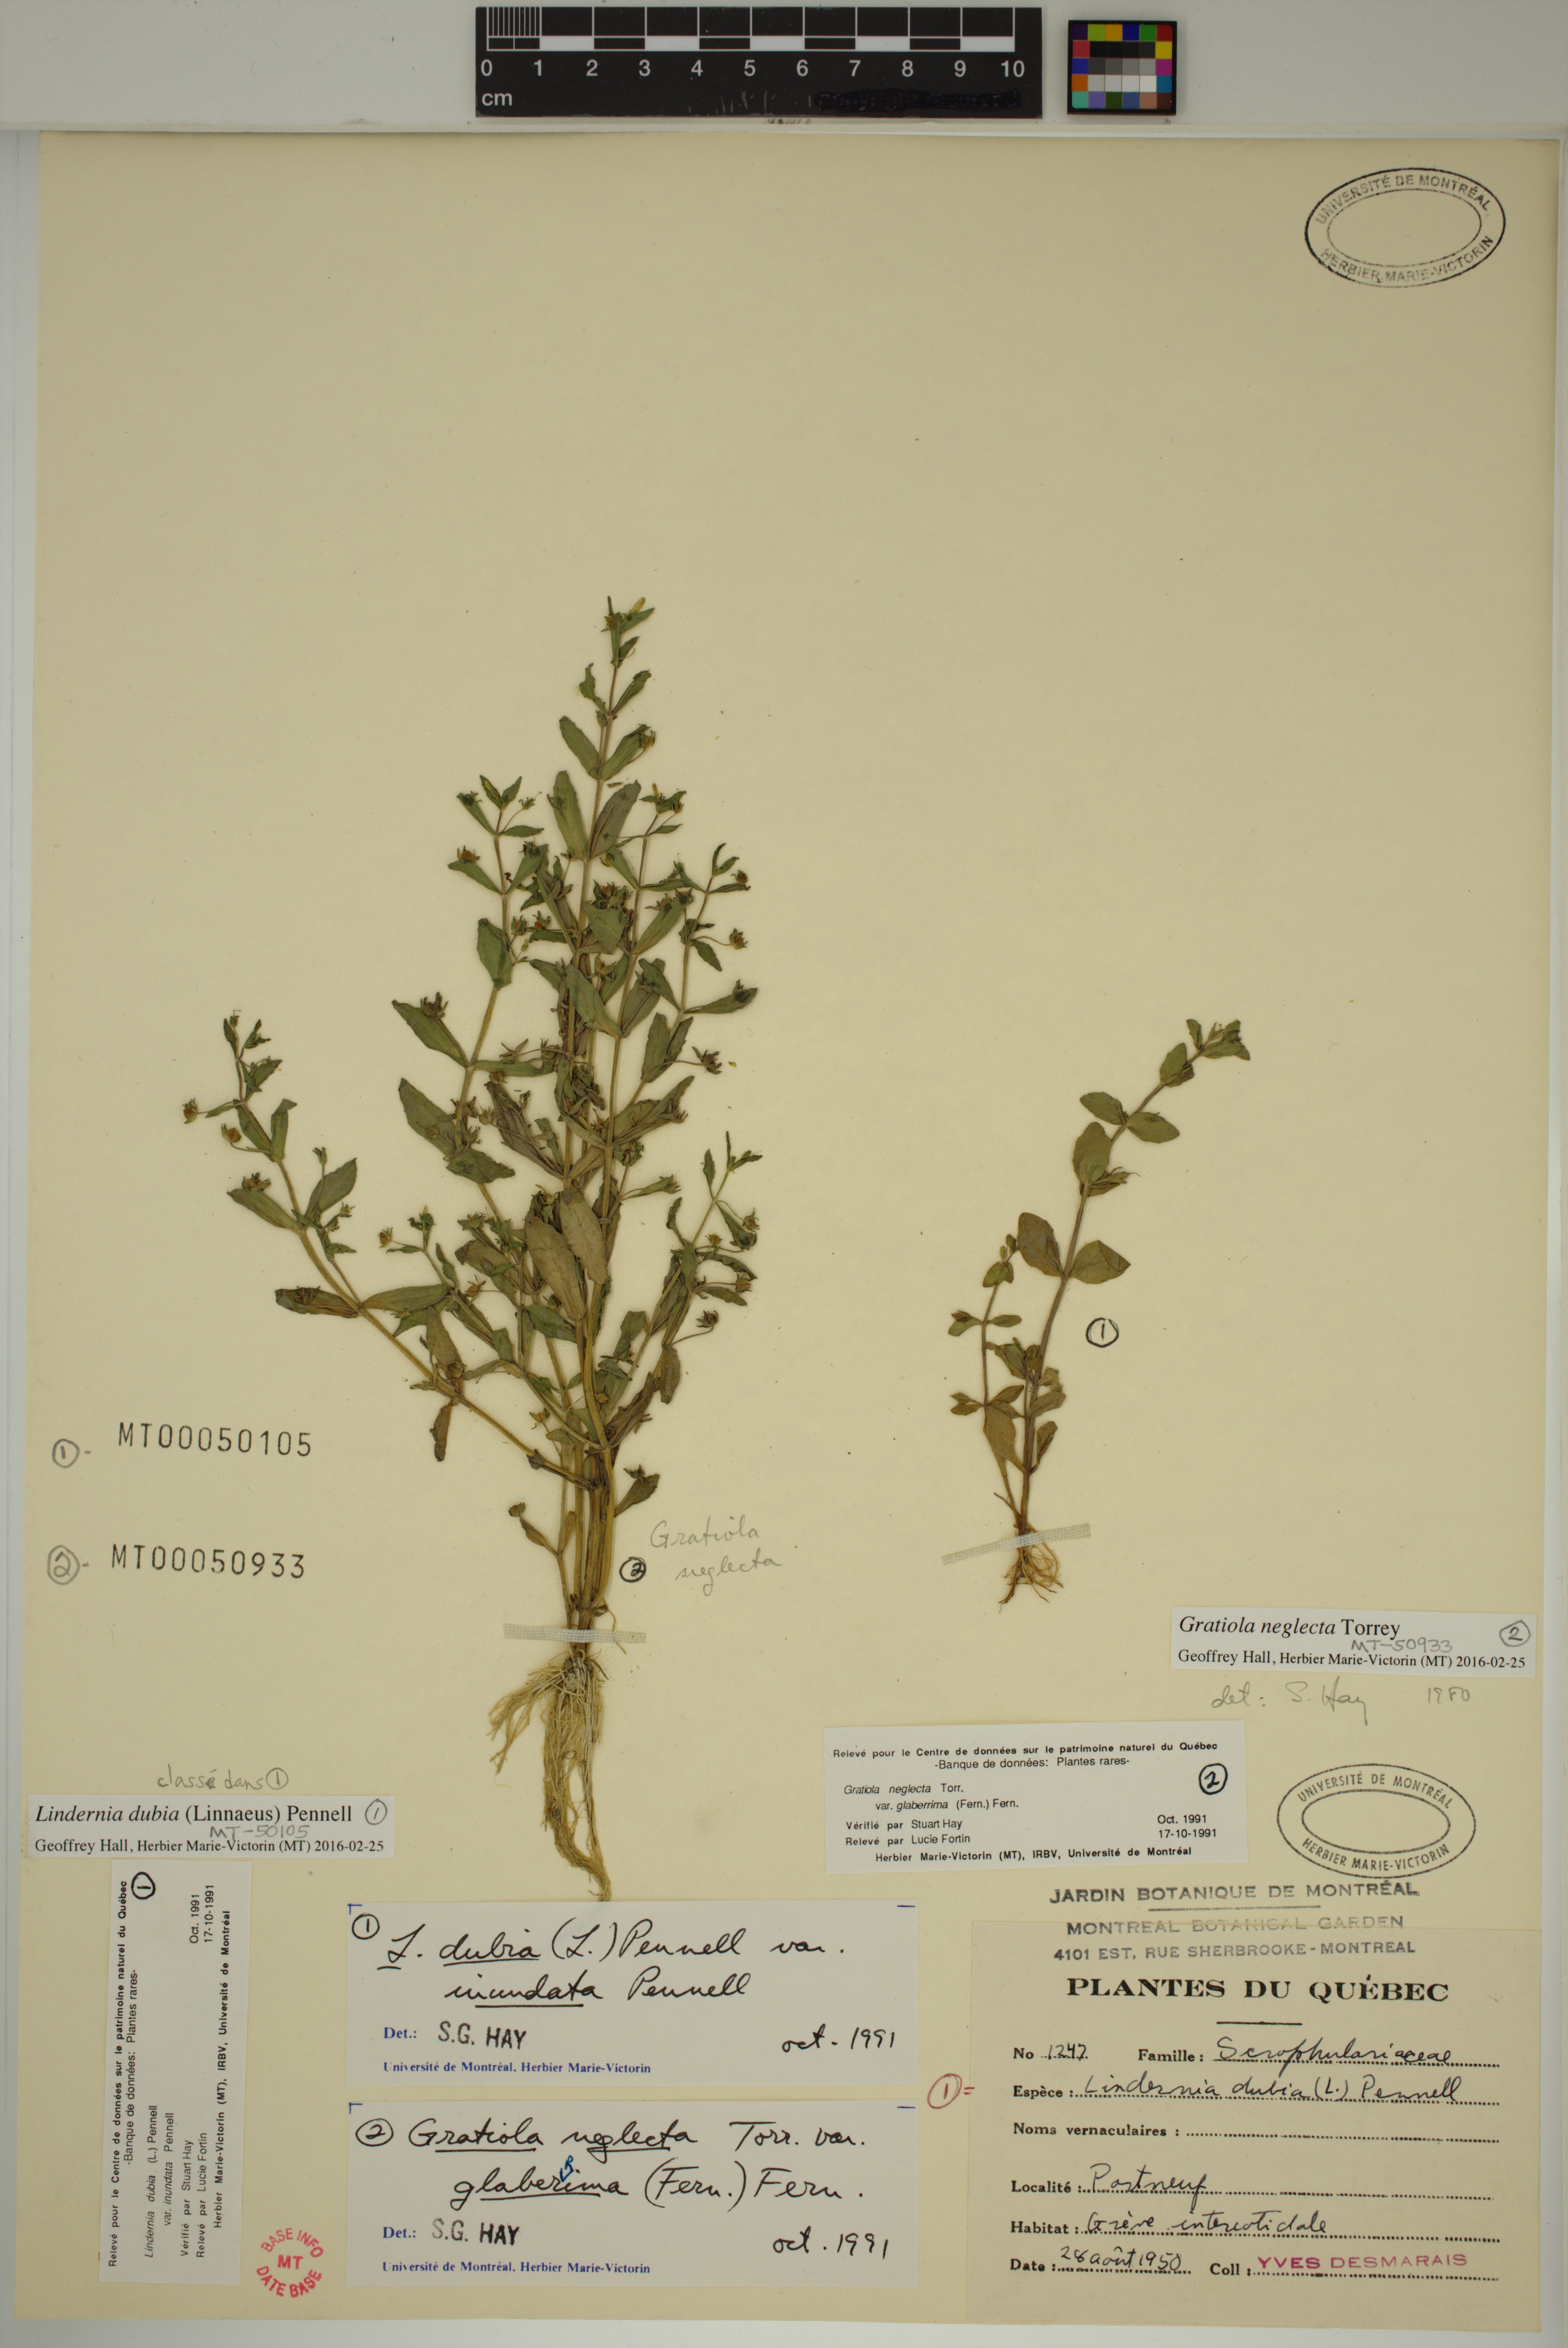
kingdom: Plantae
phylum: Tracheophyta
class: Magnoliopsida
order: Lamiales
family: Linderniaceae
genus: Lindernia
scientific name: Lindernia dubia
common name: Annual false pimpernel
